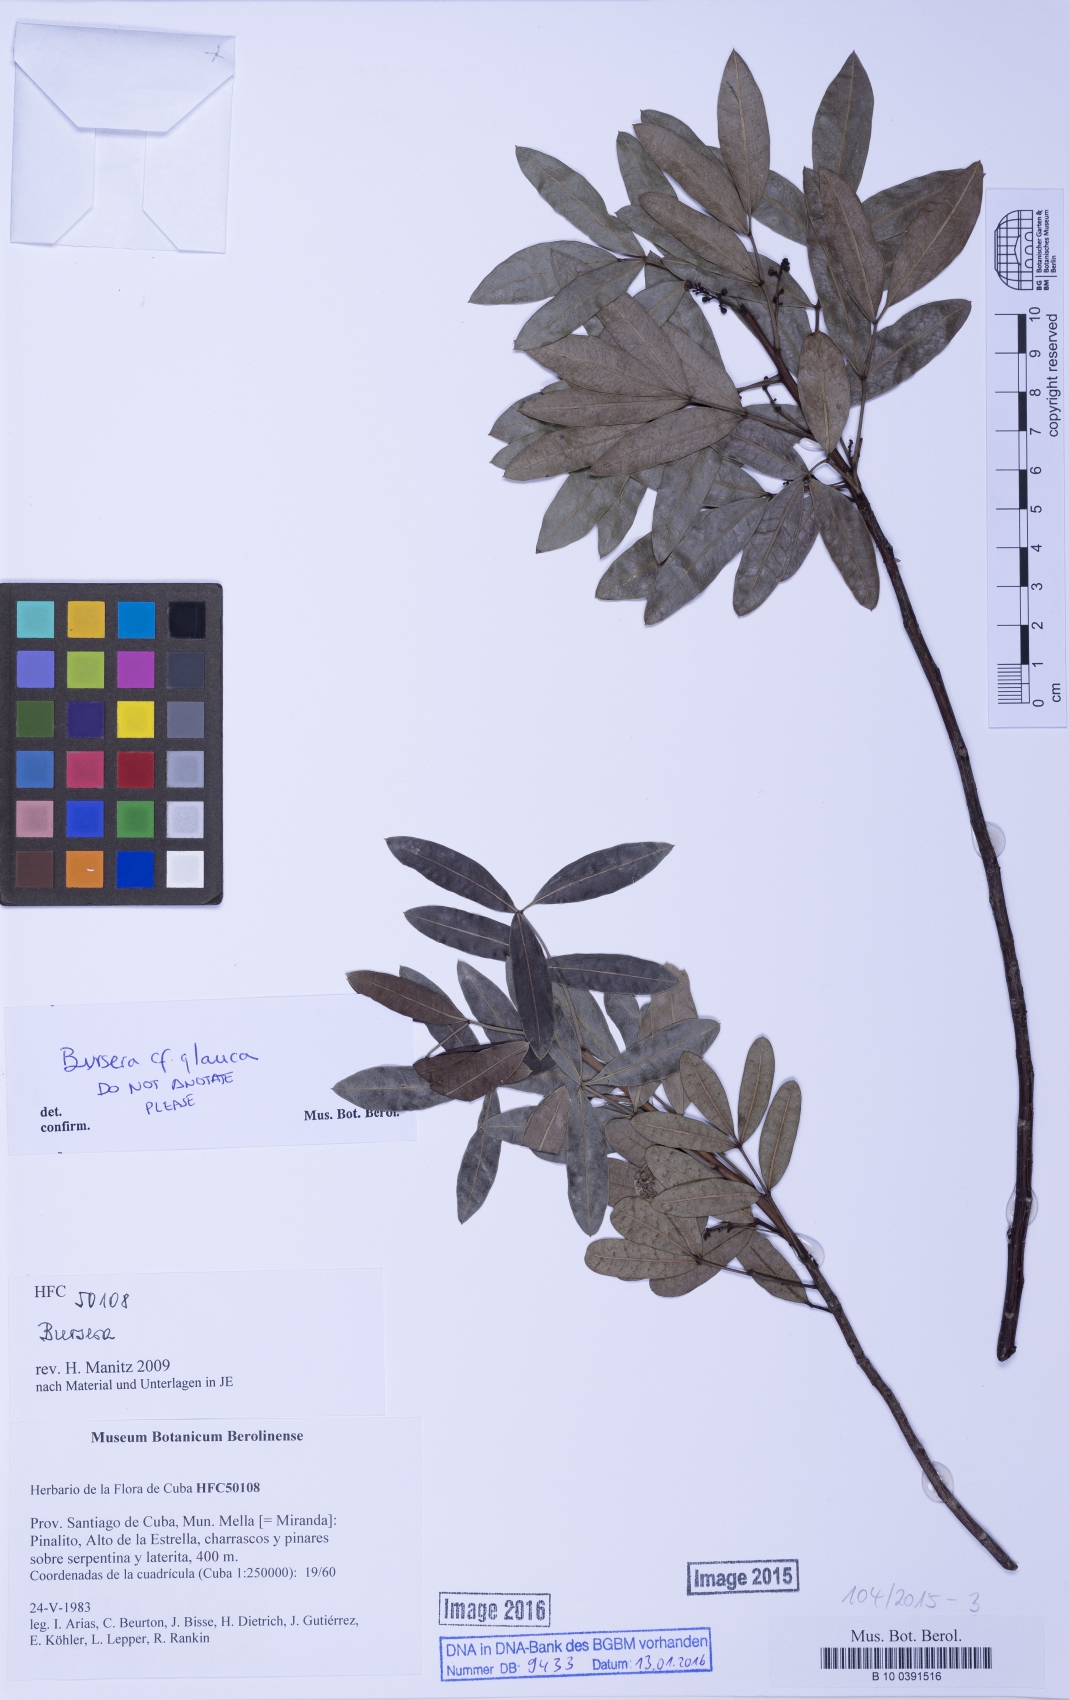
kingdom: Plantae
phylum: Tracheophyta
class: Magnoliopsida
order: Sapindales
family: Burseraceae
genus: Bursera
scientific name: Bursera
